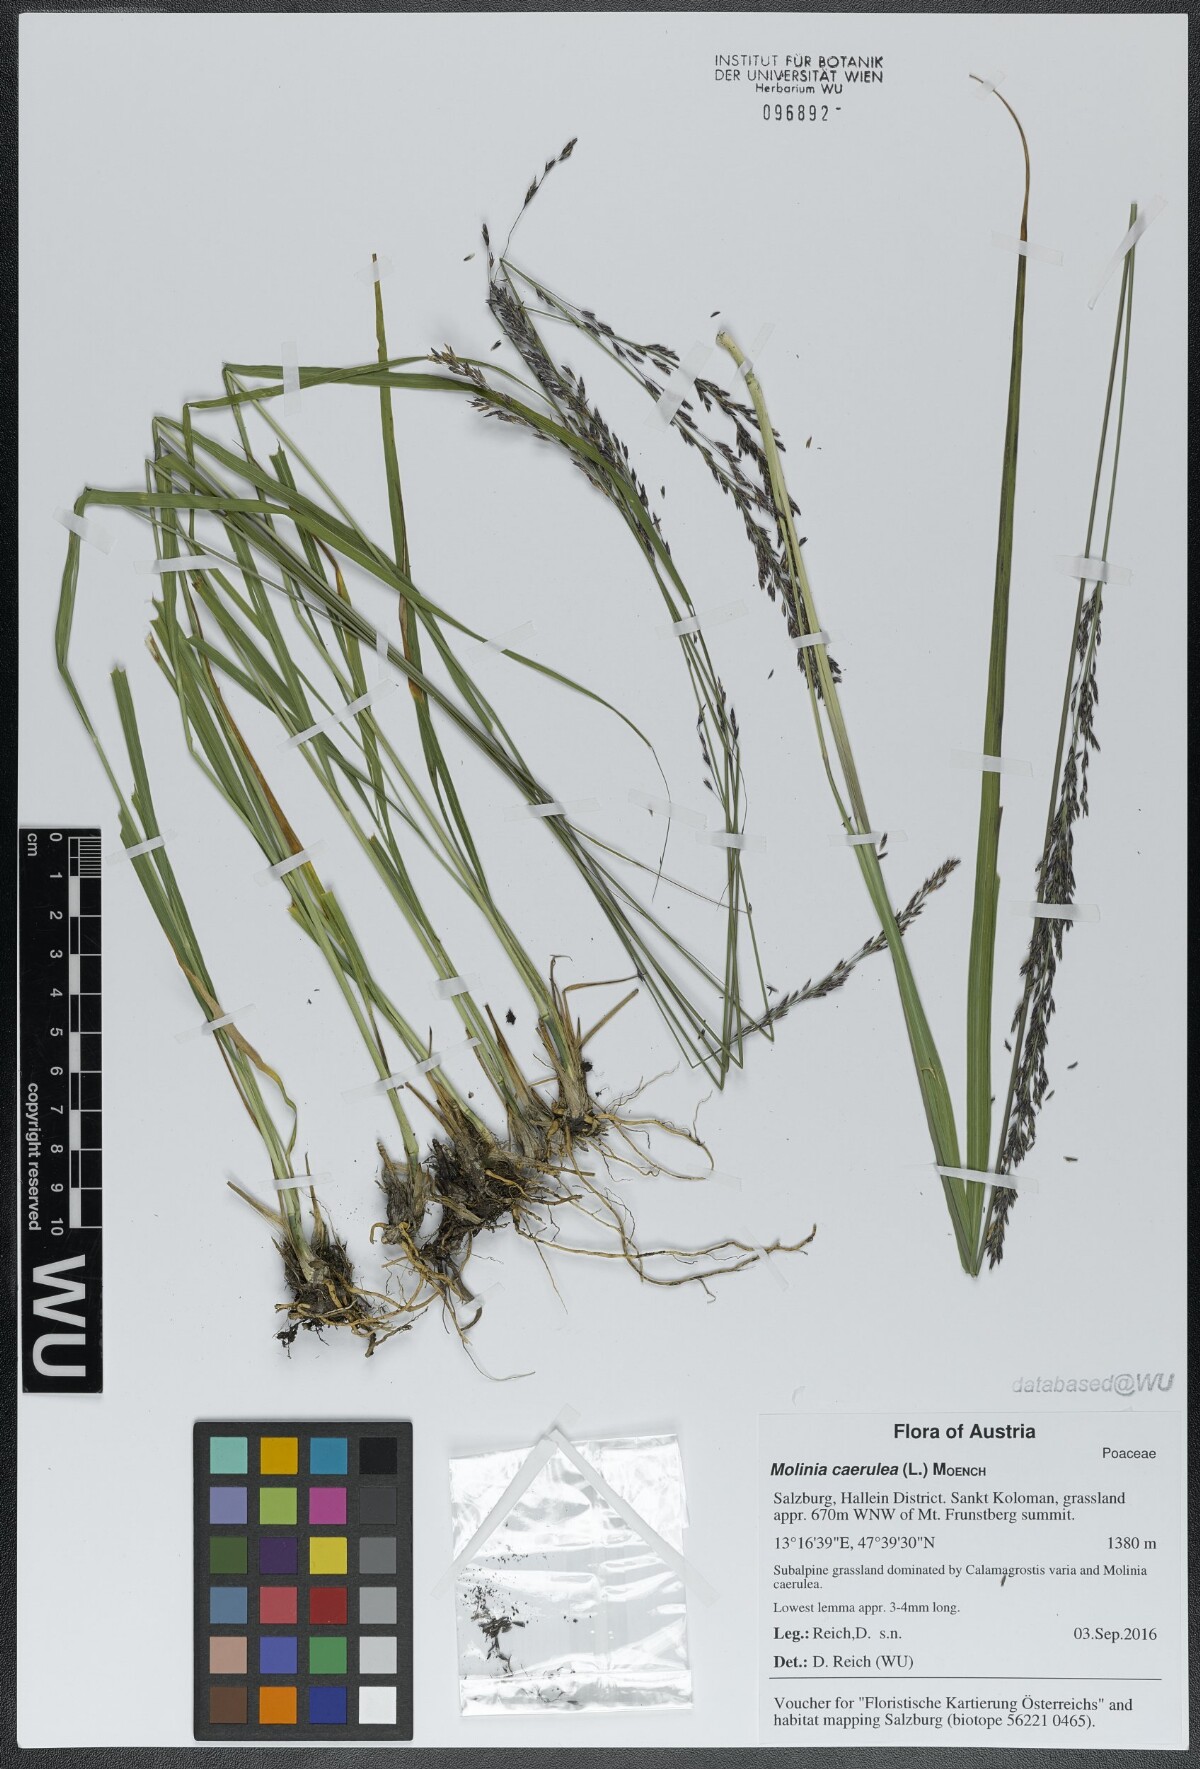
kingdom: Plantae
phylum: Tracheophyta
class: Liliopsida
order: Poales
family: Poaceae
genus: Molinia
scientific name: Molinia caerulea
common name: Purple moor-grass
